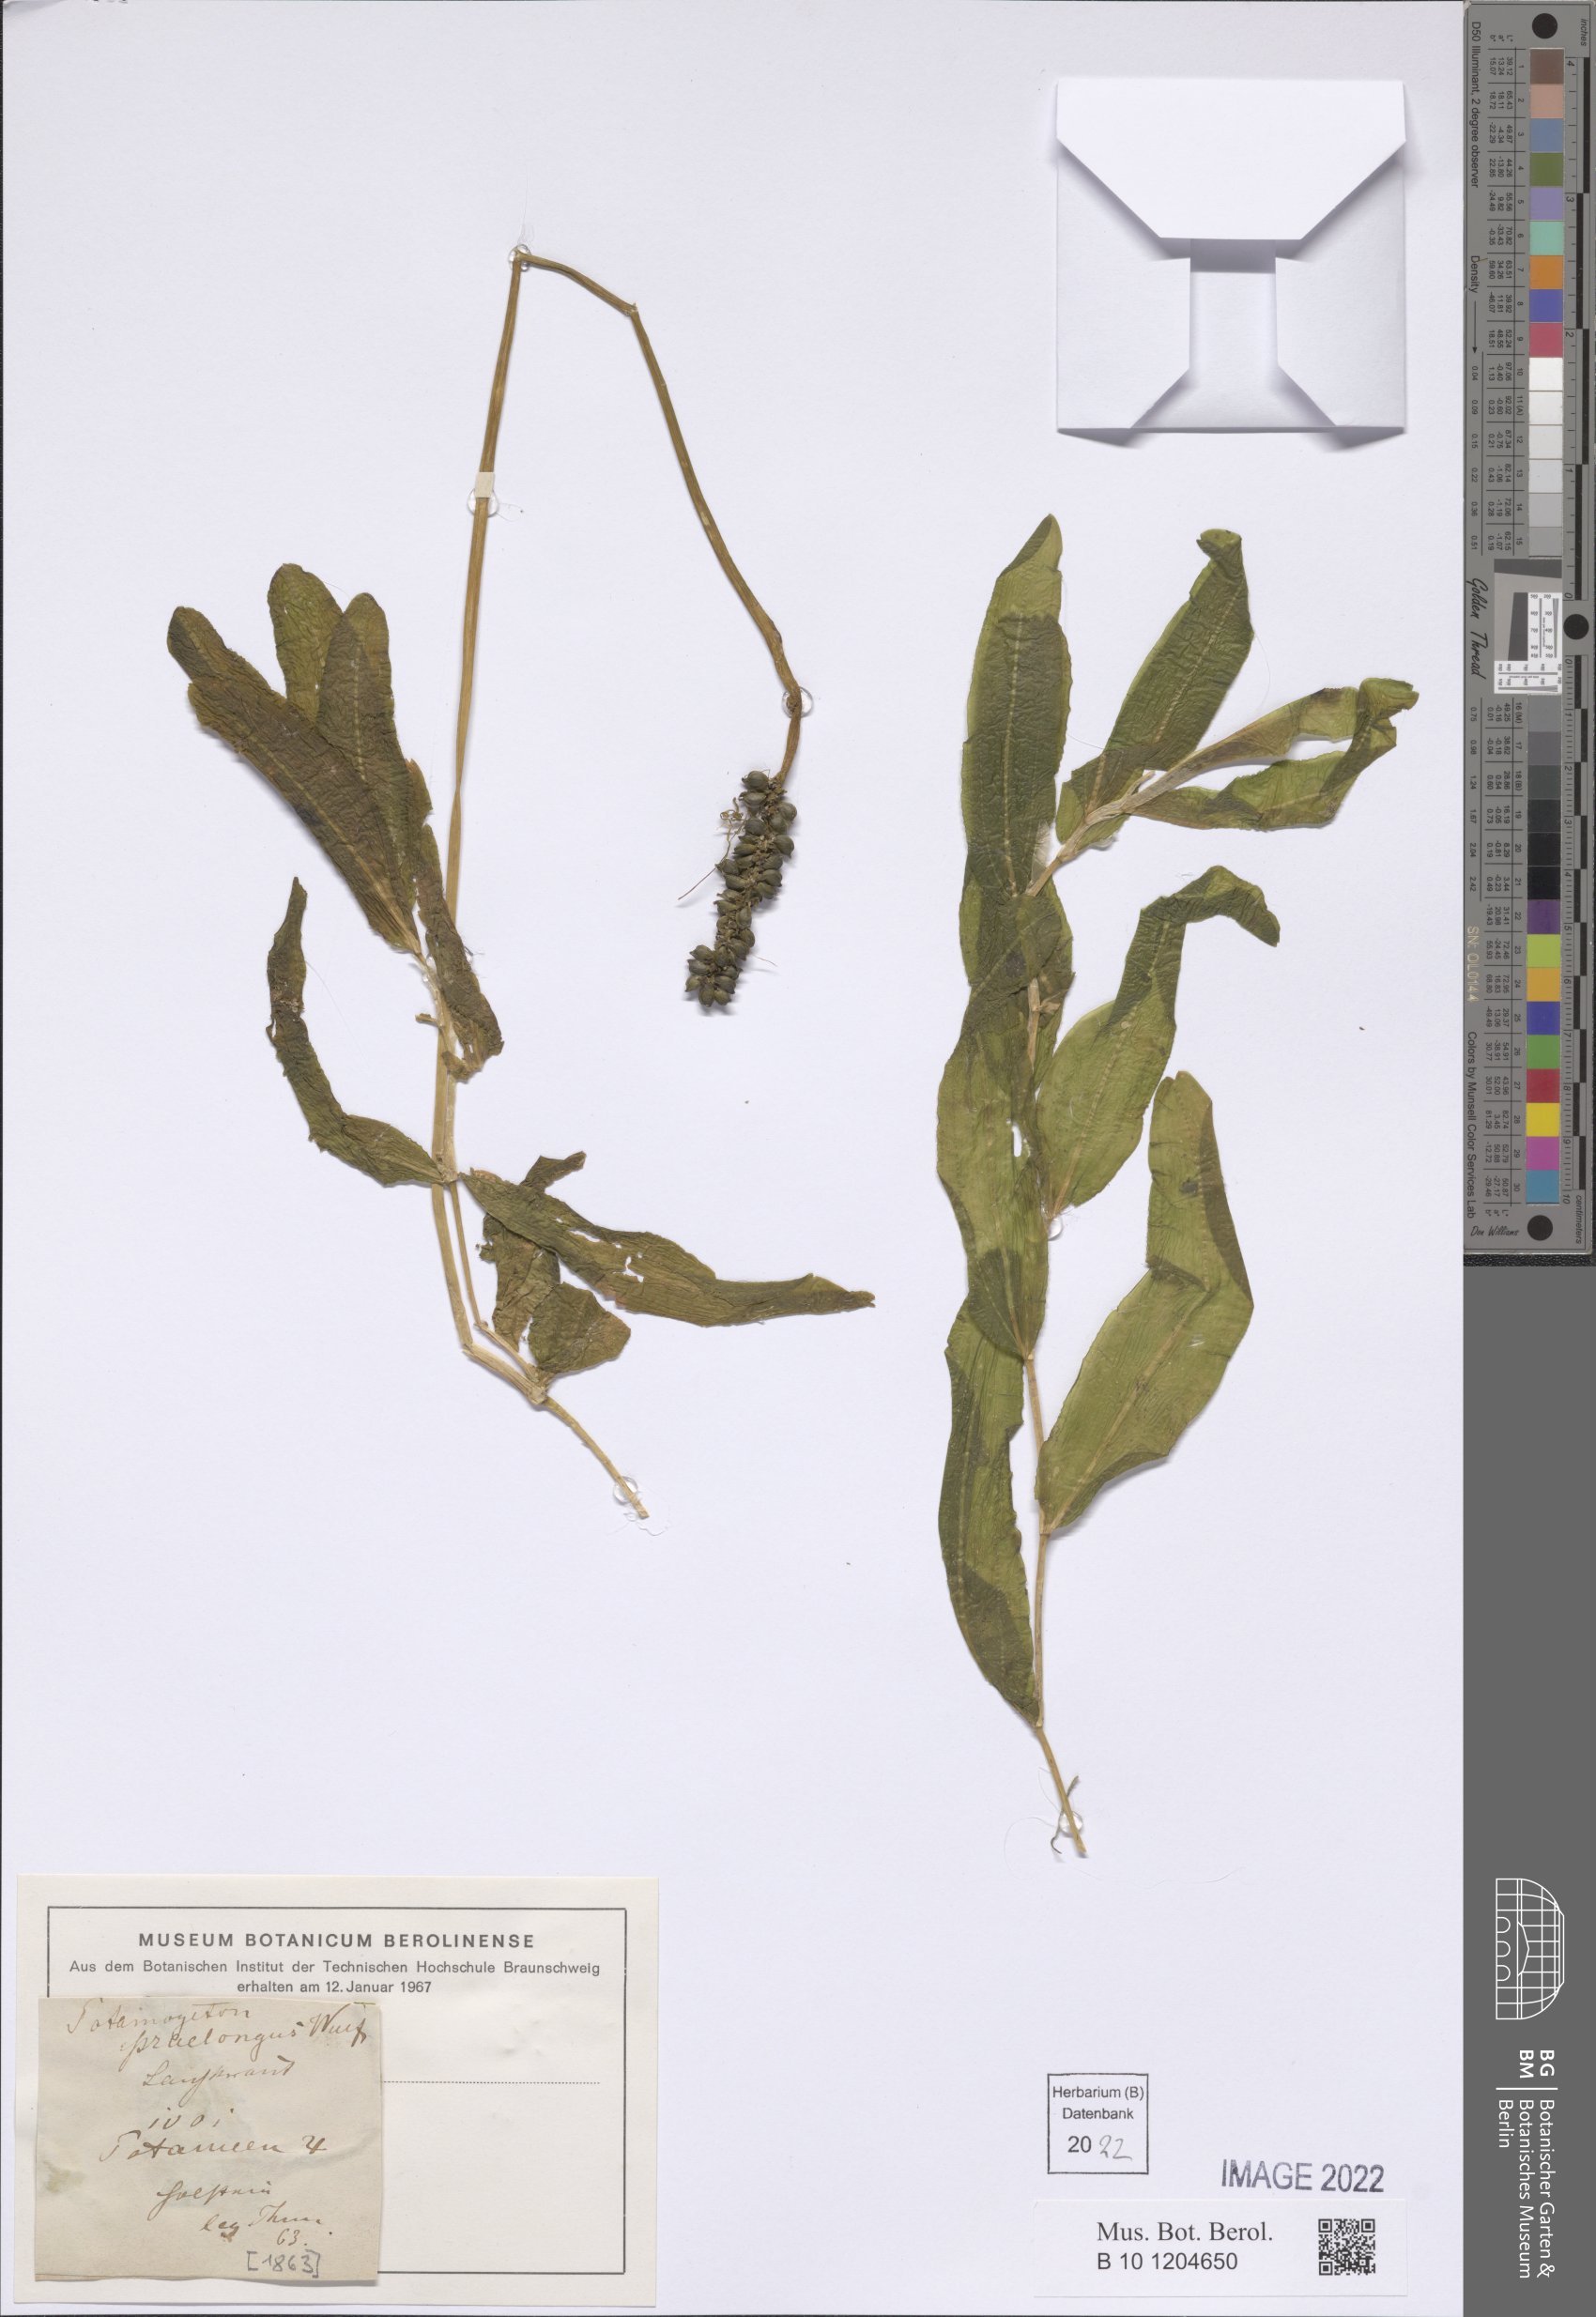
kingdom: Plantae
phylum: Tracheophyta
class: Liliopsida
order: Alismatales
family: Potamogetonaceae
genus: Potamogeton
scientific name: Potamogeton praelongus
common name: Long-stalked pondweed
